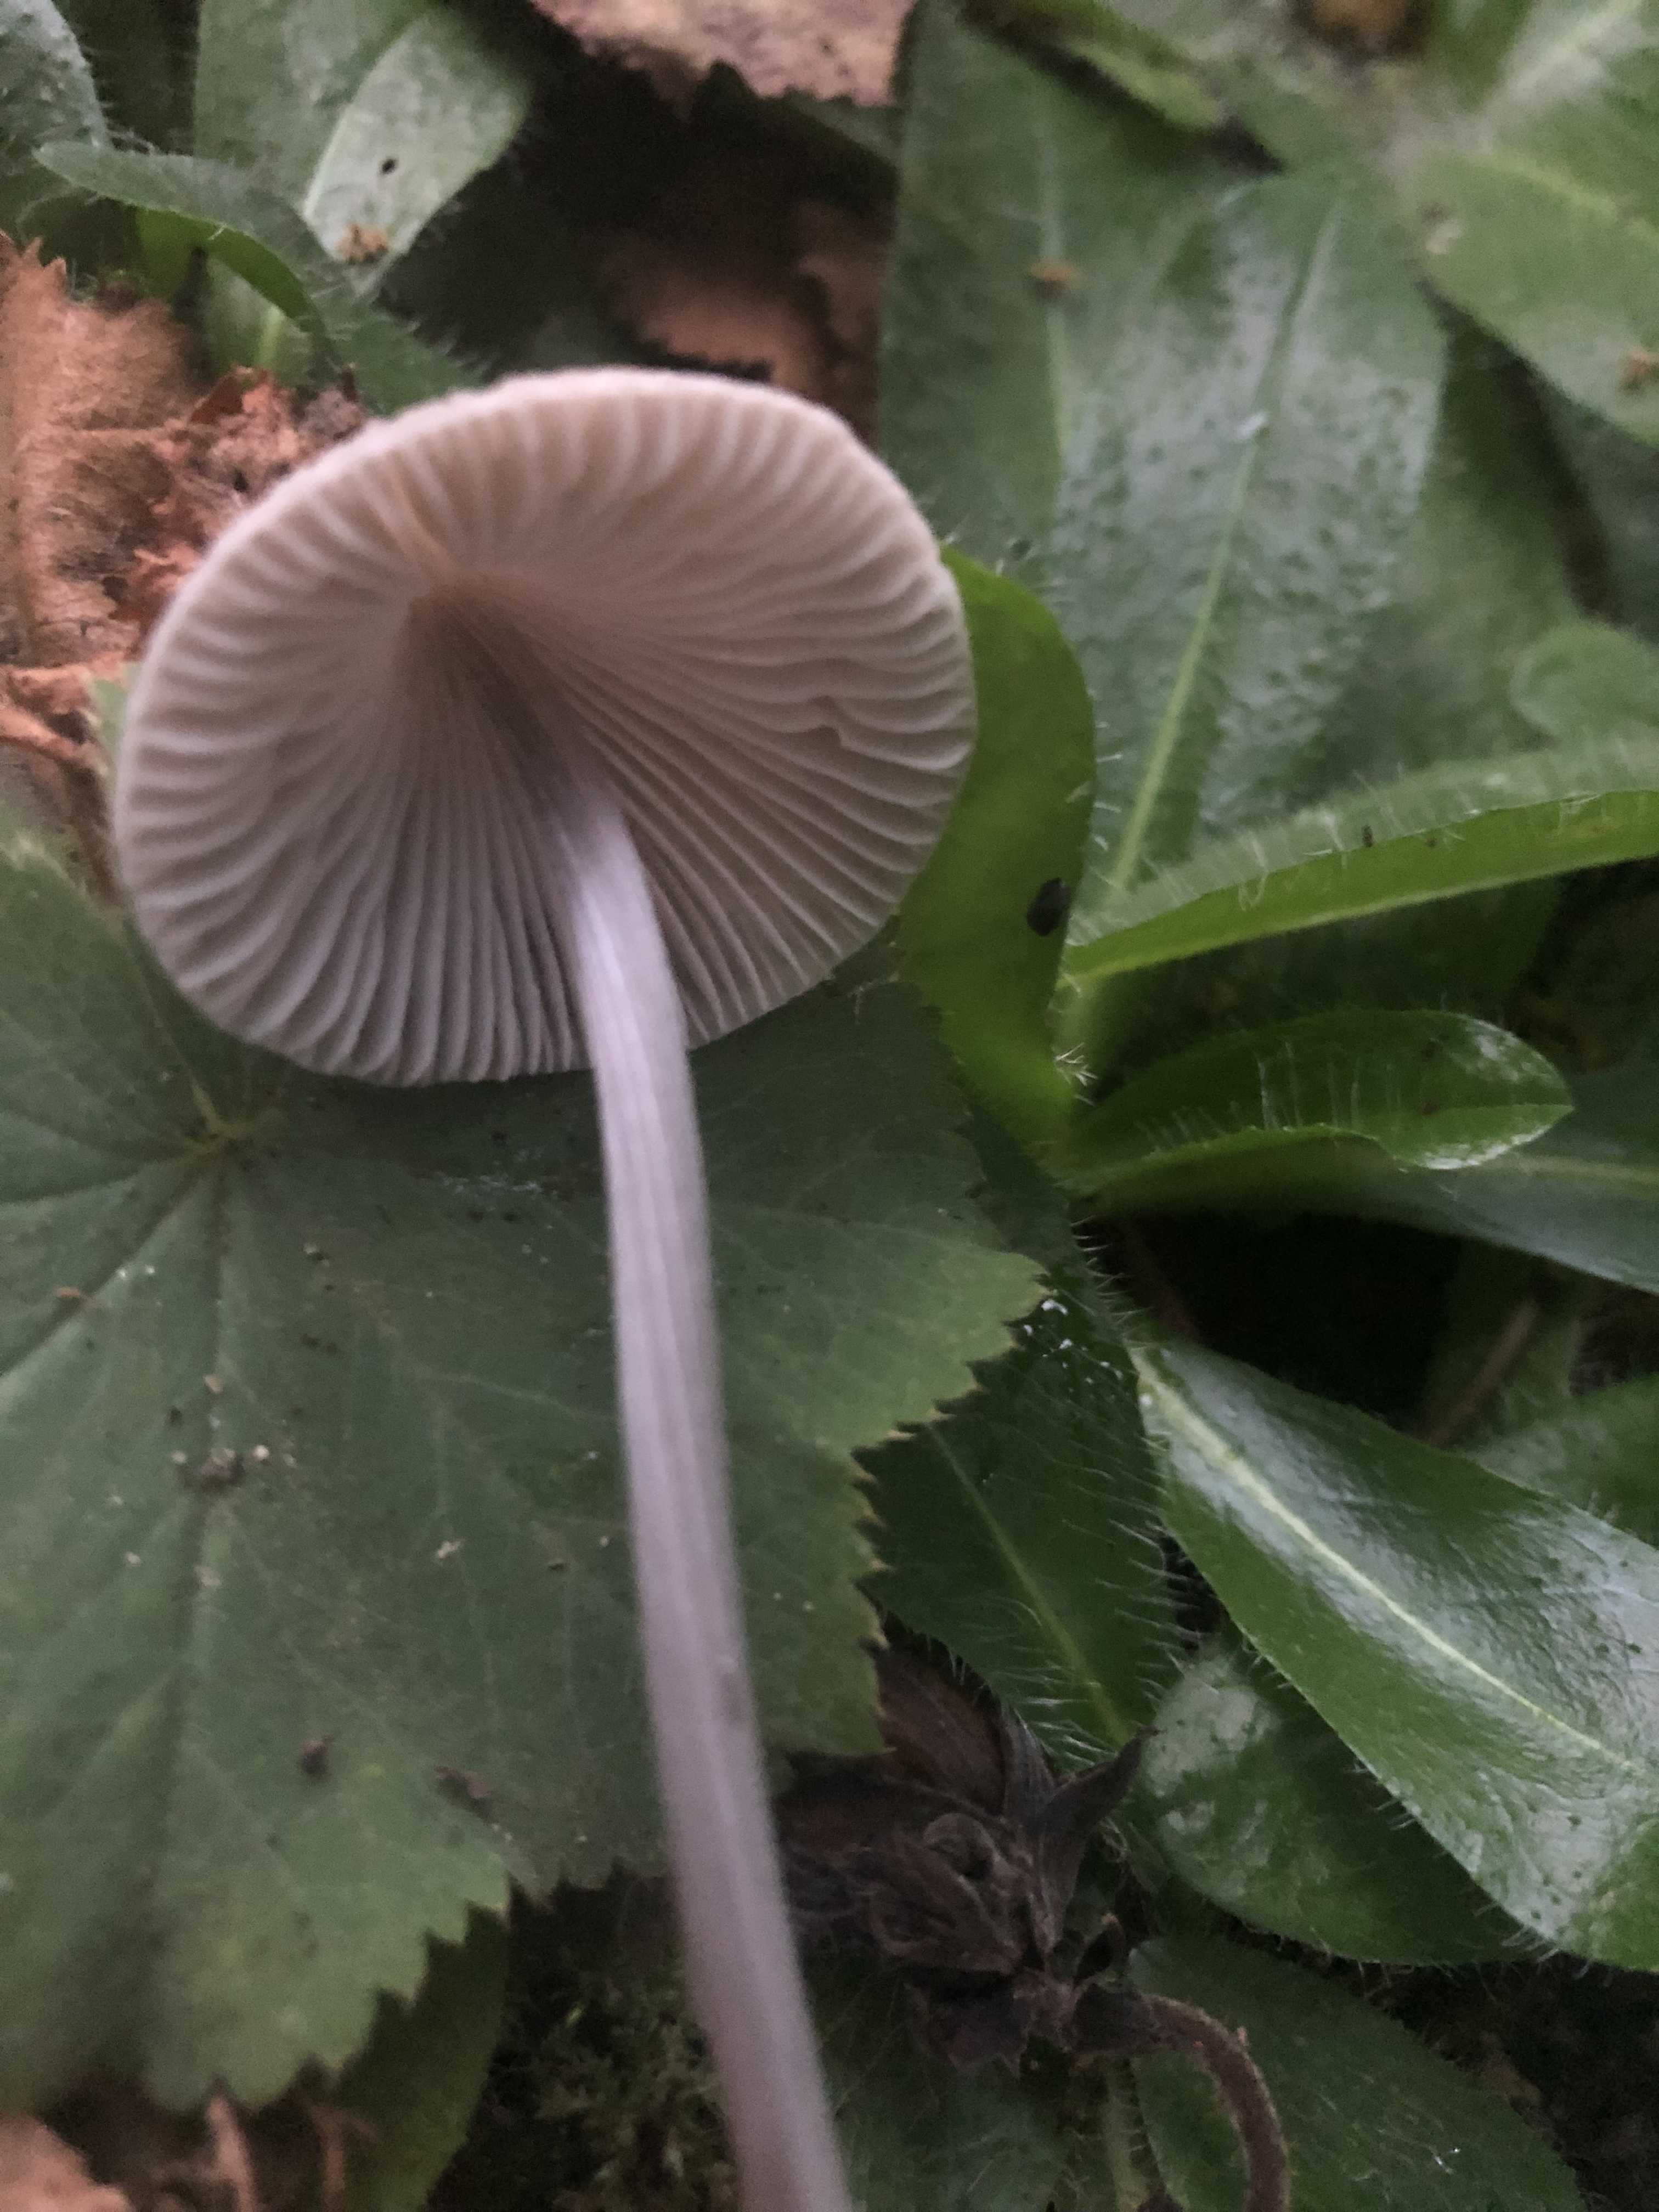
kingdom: Fungi
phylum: Basidiomycota
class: Agaricomycetes
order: Agaricales
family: Mycenaceae
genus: Mycena
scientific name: Mycena polygramma
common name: mangestribet huesvamp
